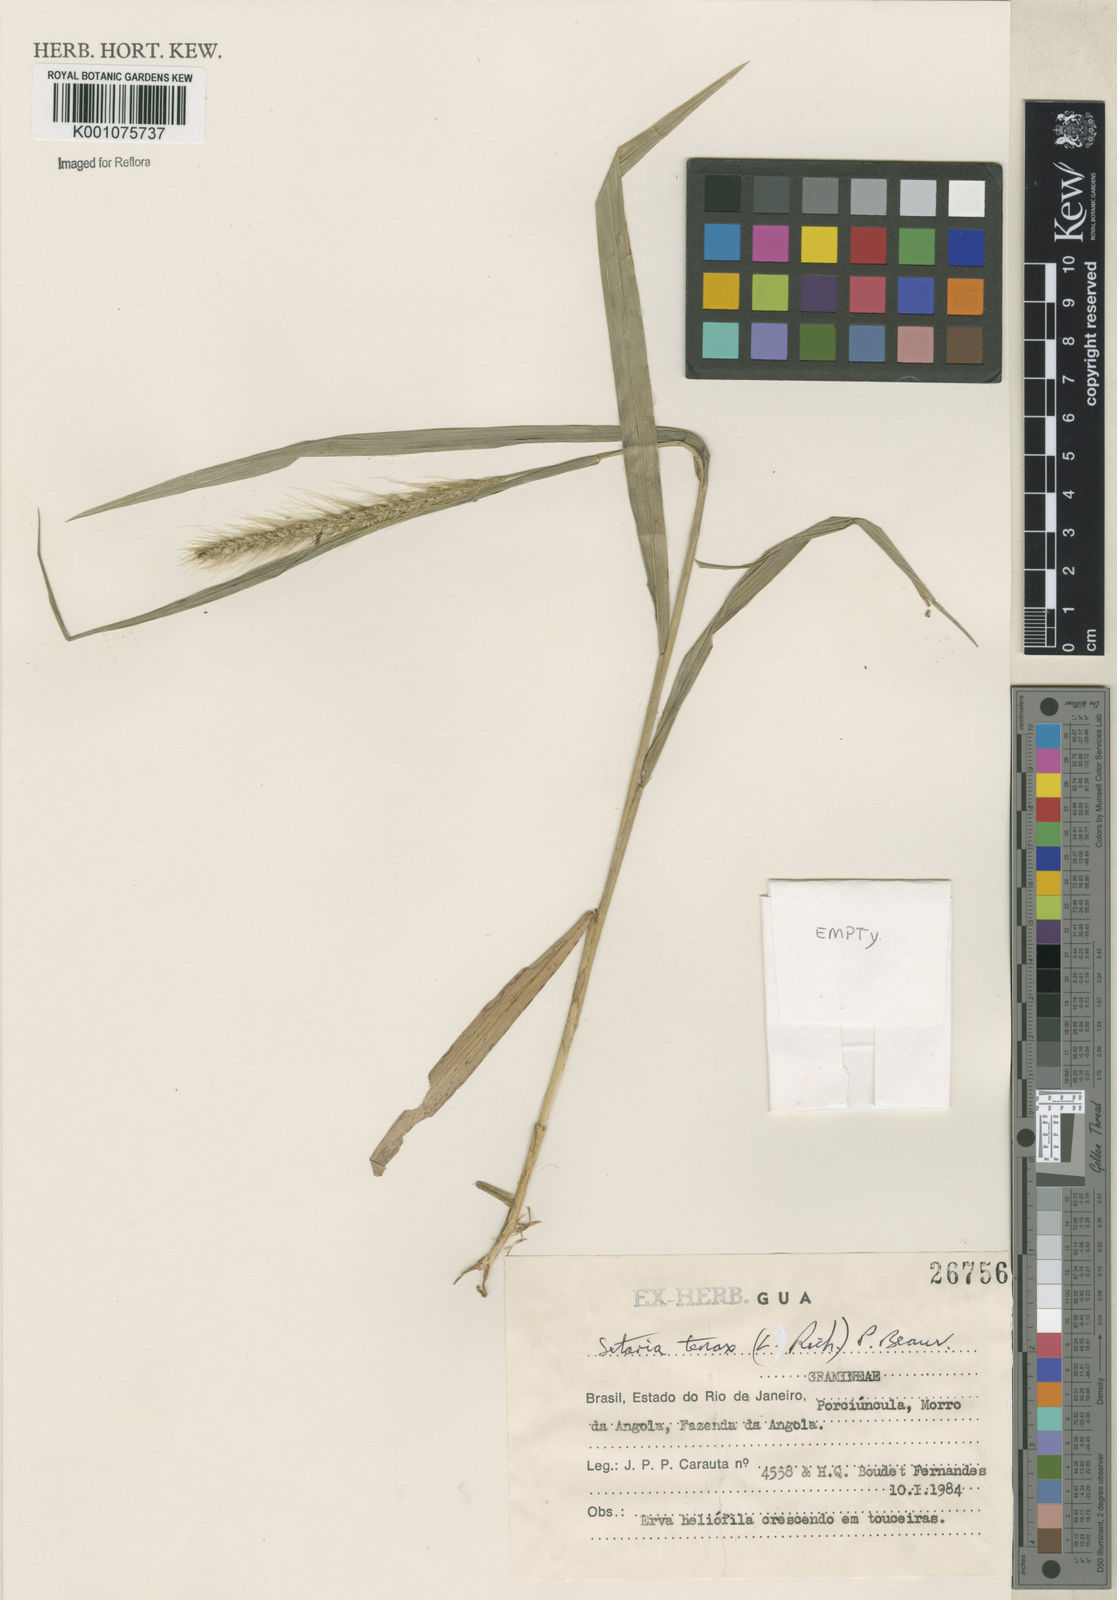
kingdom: Plantae
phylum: Tracheophyta
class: Liliopsida
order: Poales
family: Poaceae
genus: Setaria
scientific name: Setaria tenax
